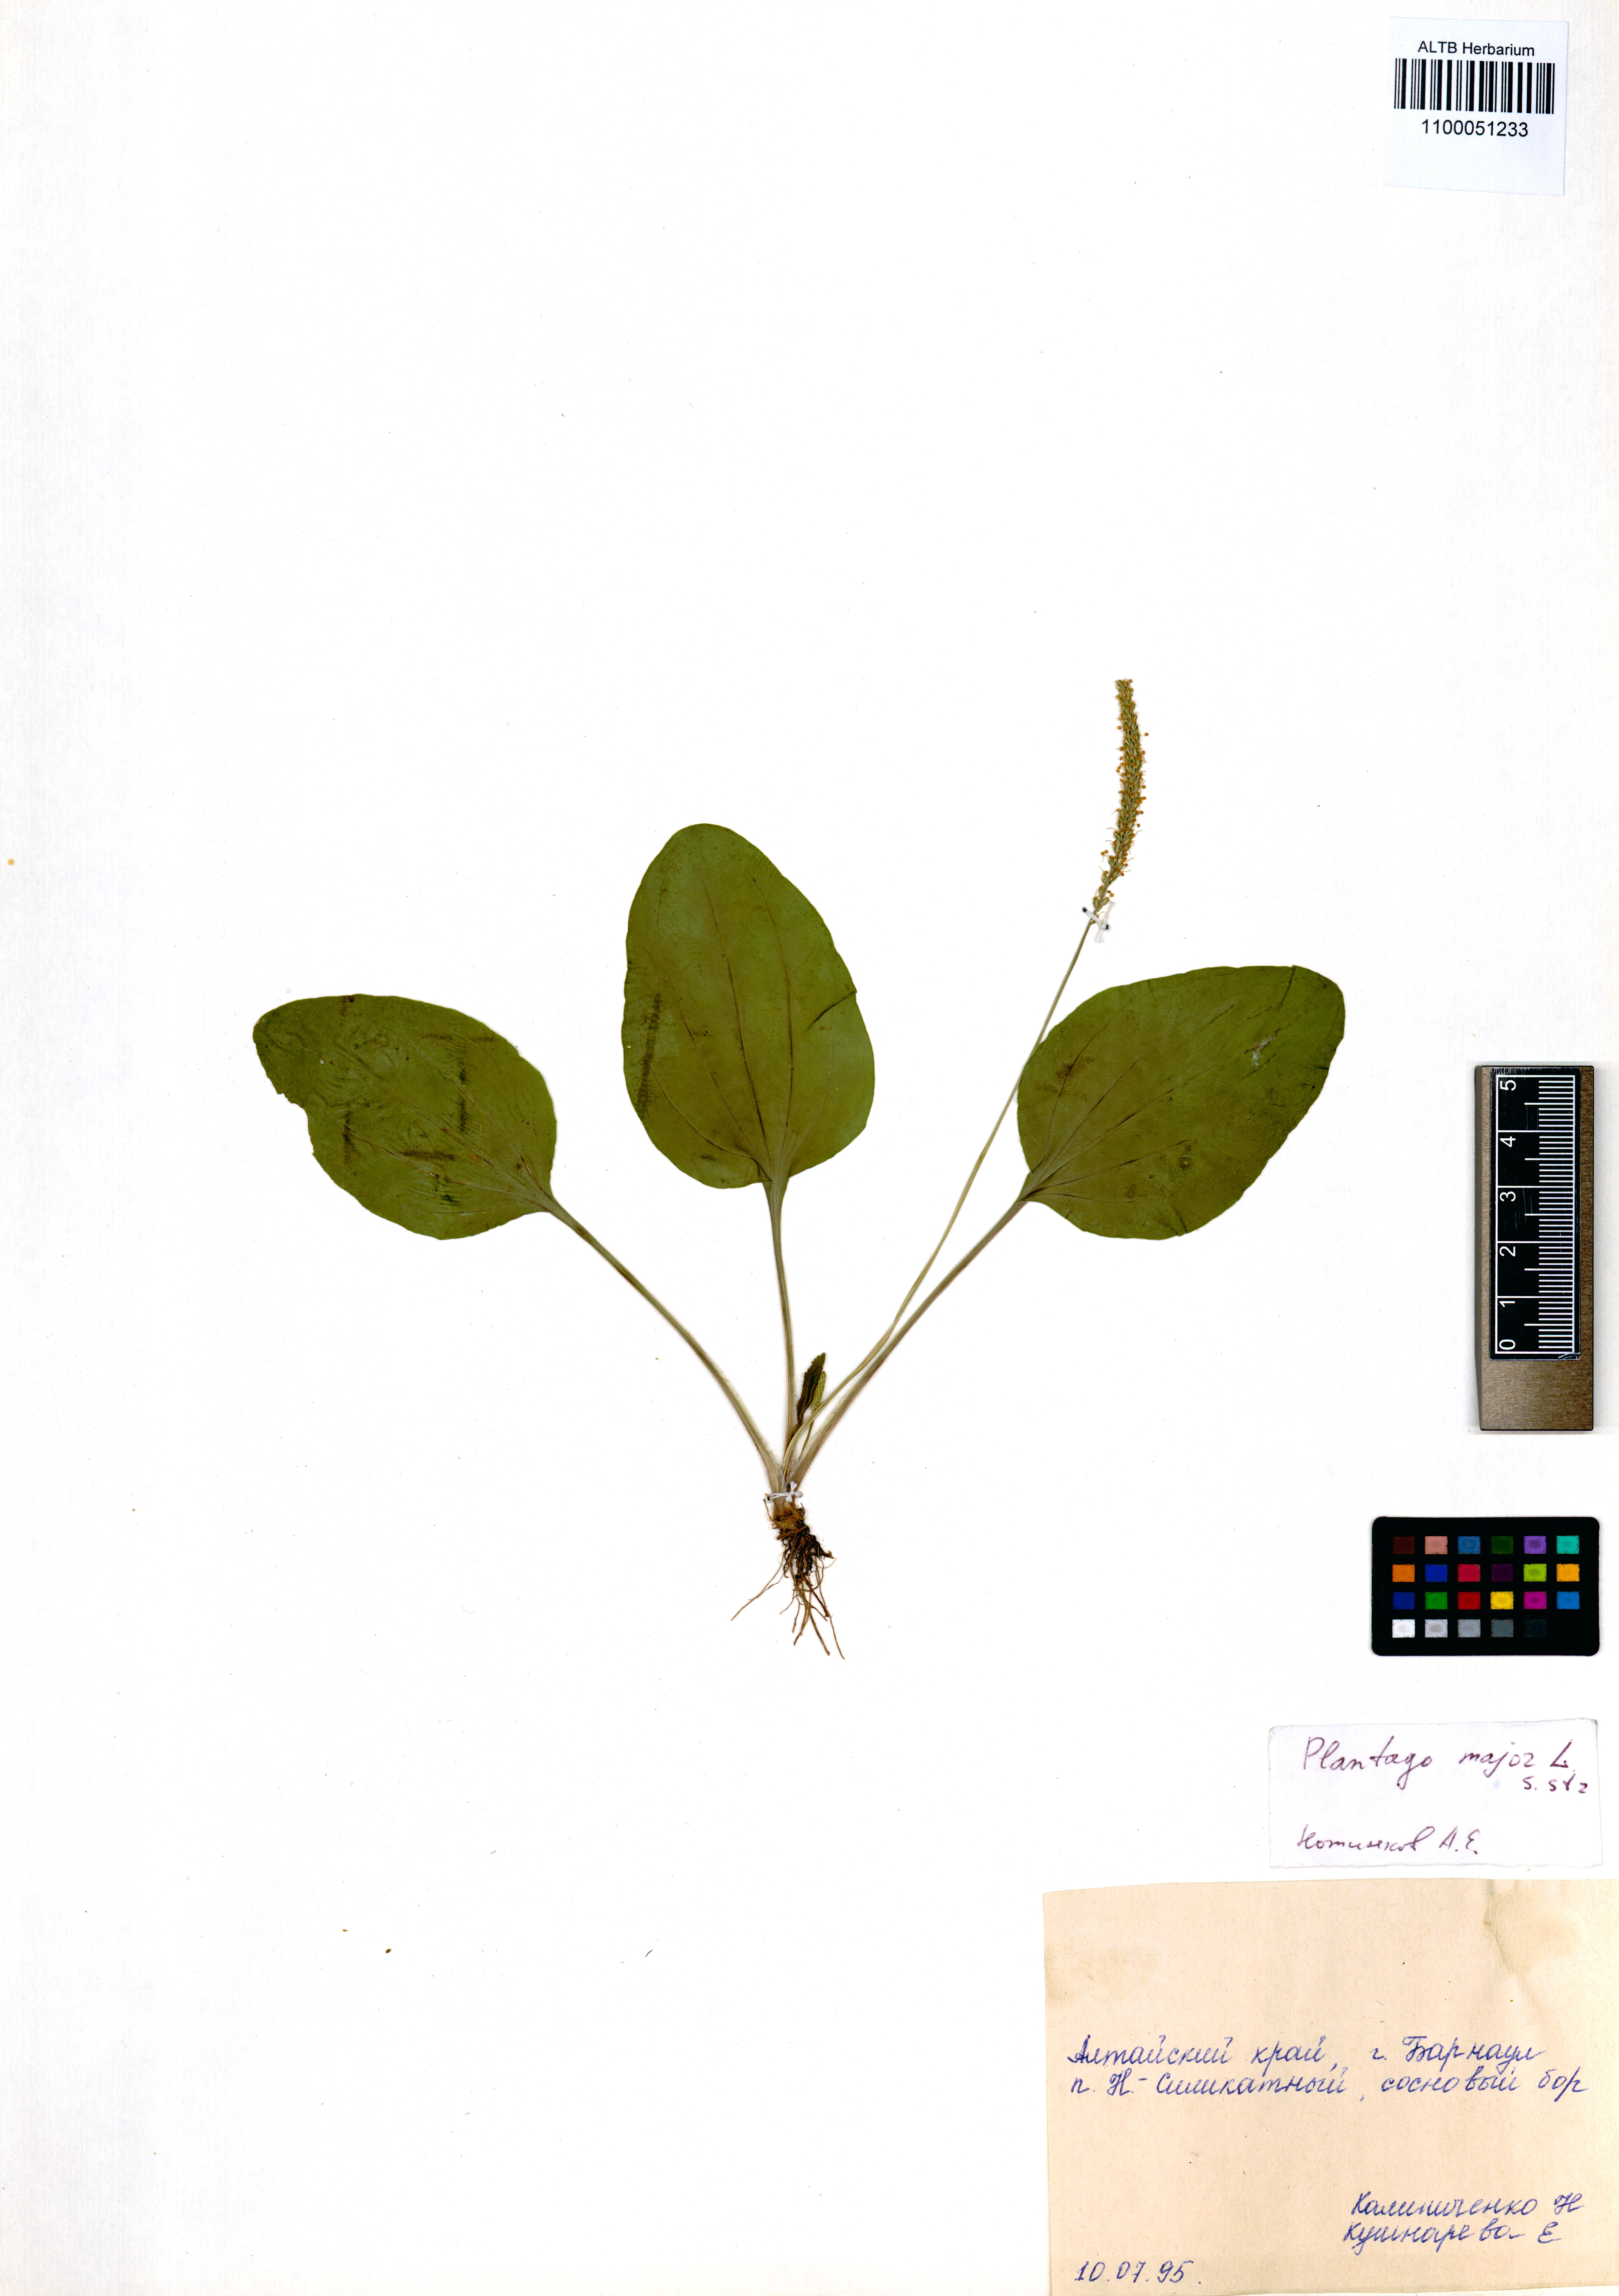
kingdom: Plantae
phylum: Tracheophyta
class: Magnoliopsida
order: Lamiales
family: Plantaginaceae
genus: Plantago
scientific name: Plantago major
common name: Common plantain
